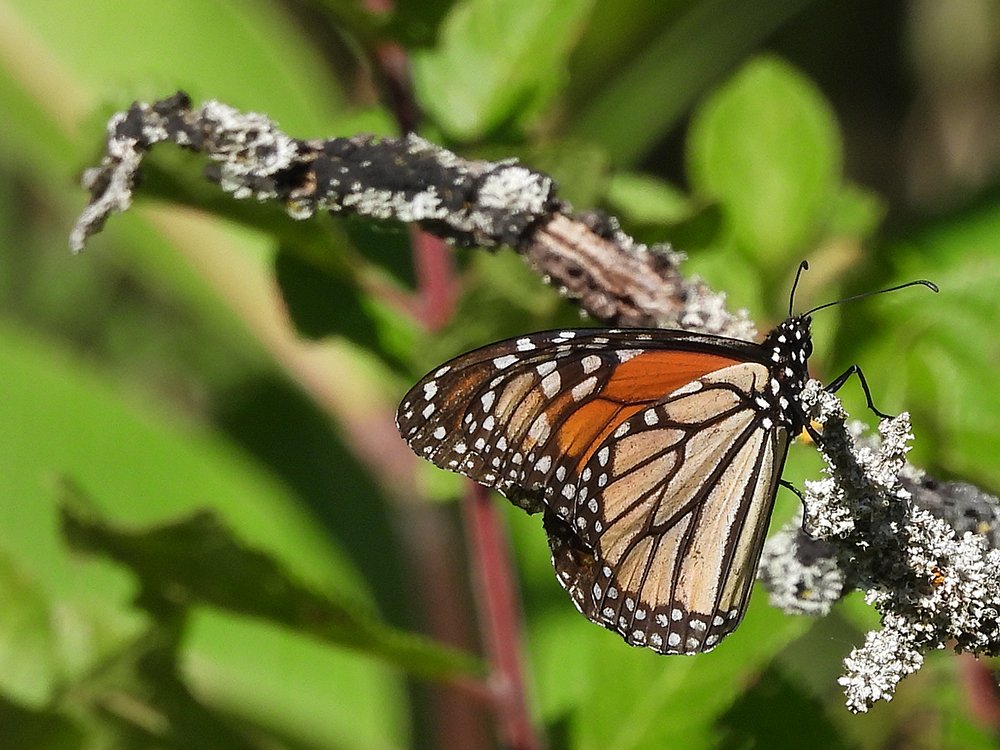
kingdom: Animalia
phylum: Arthropoda
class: Insecta
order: Lepidoptera
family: Nymphalidae
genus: Danaus
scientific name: Danaus plexippus
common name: Monarch
